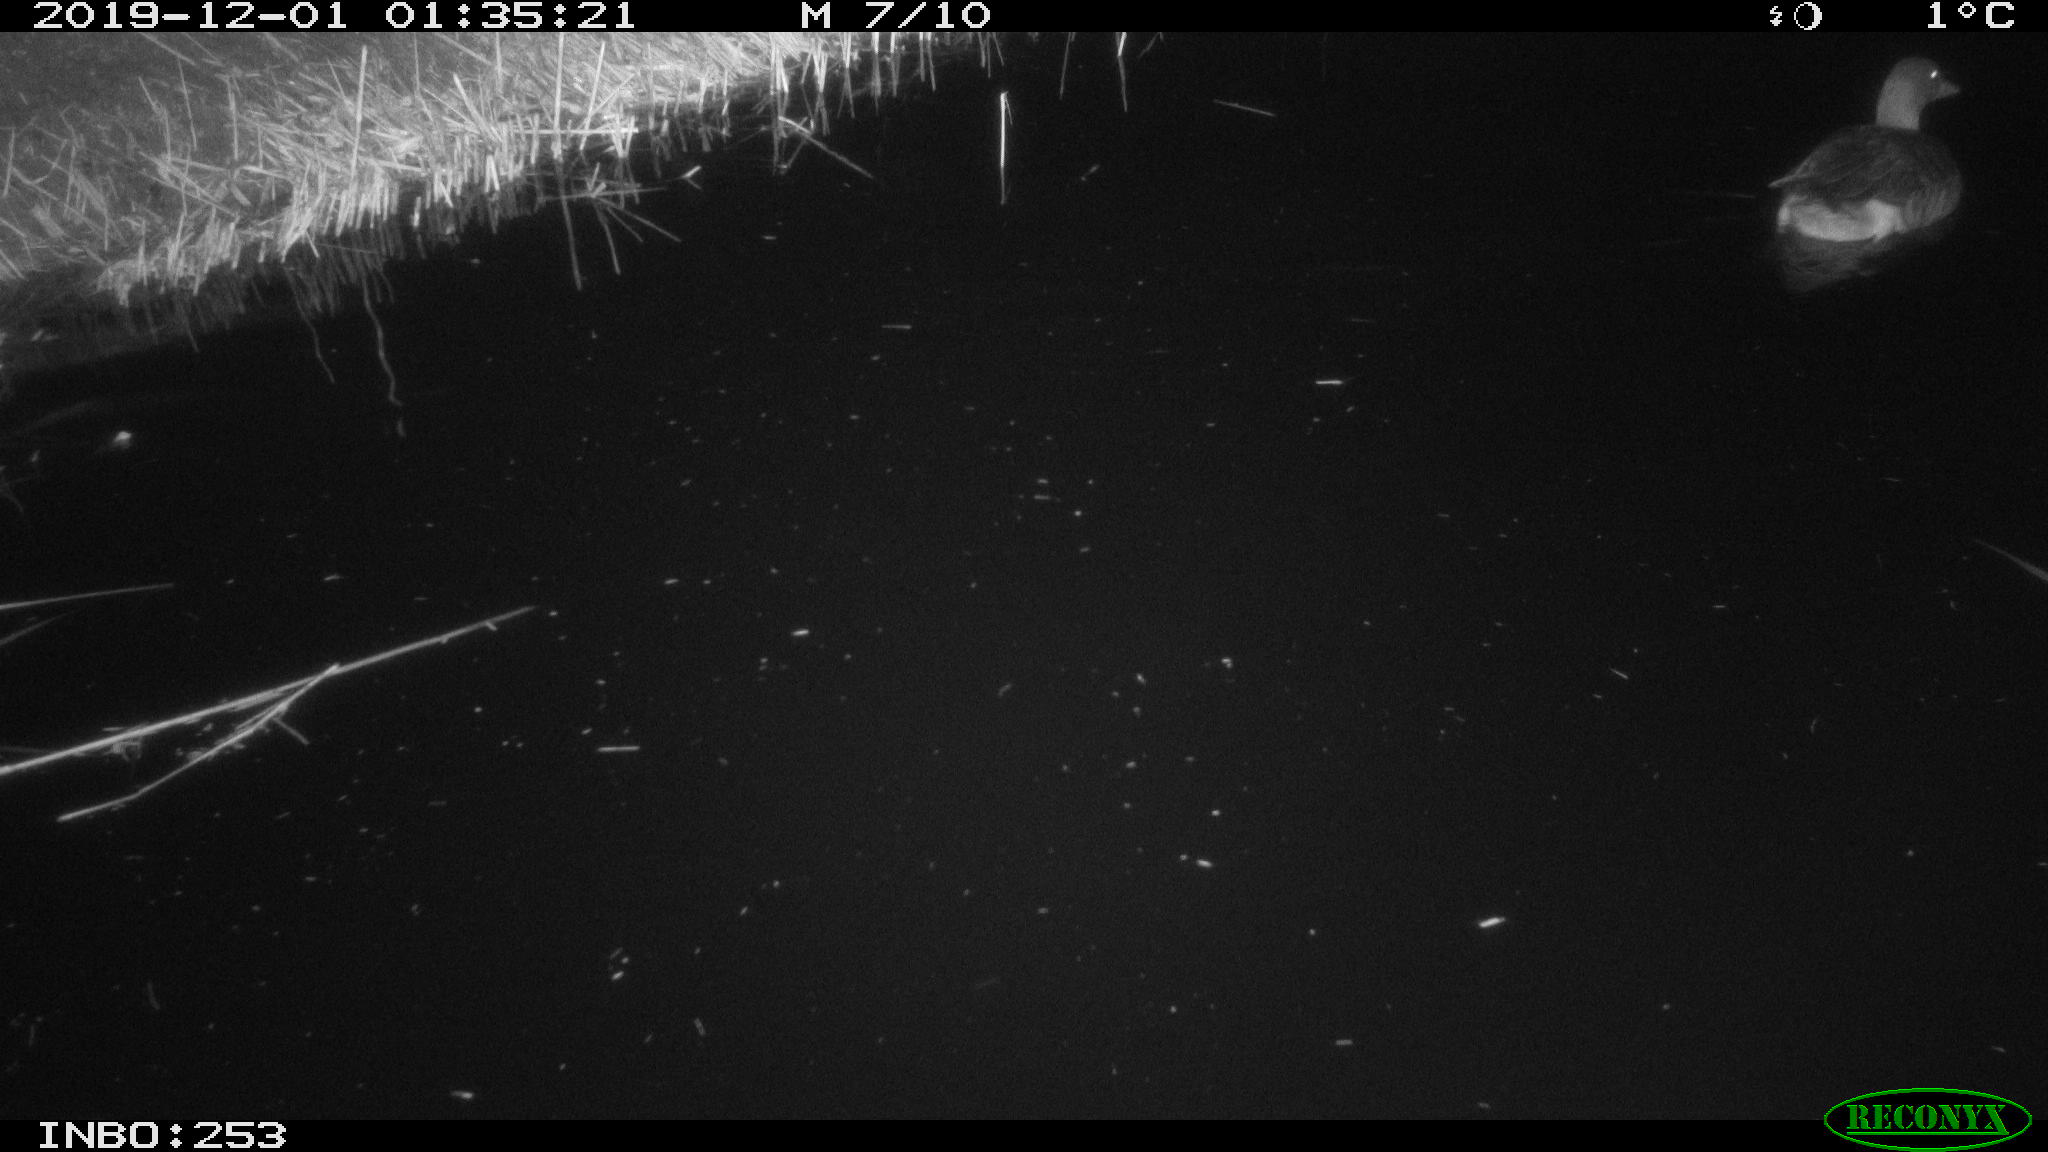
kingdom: Animalia
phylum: Chordata
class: Aves
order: Anseriformes
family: Anatidae
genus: Anas
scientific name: Anas platyrhynchos
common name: Mallard
